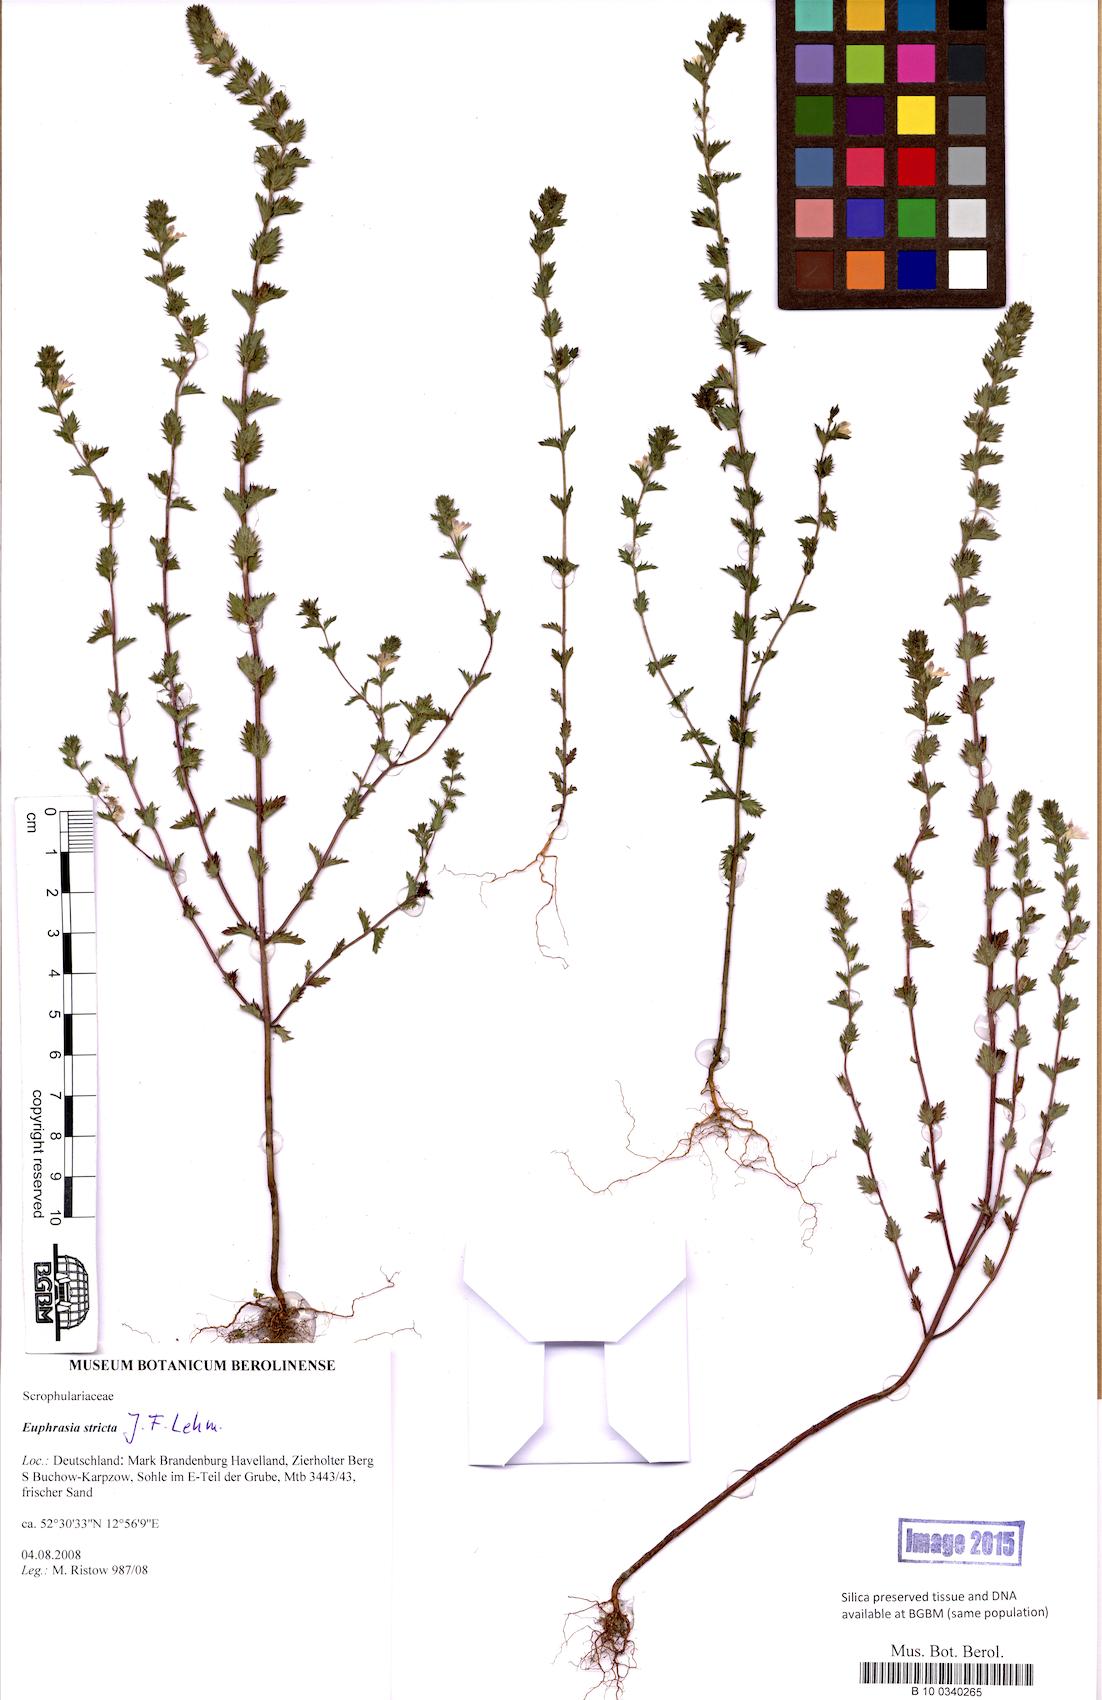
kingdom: Plantae
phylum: Tracheophyta
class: Magnoliopsida
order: Lamiales
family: Orobanchaceae
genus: Euphrasia
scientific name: Euphrasia stricta
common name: Drug eyebright
